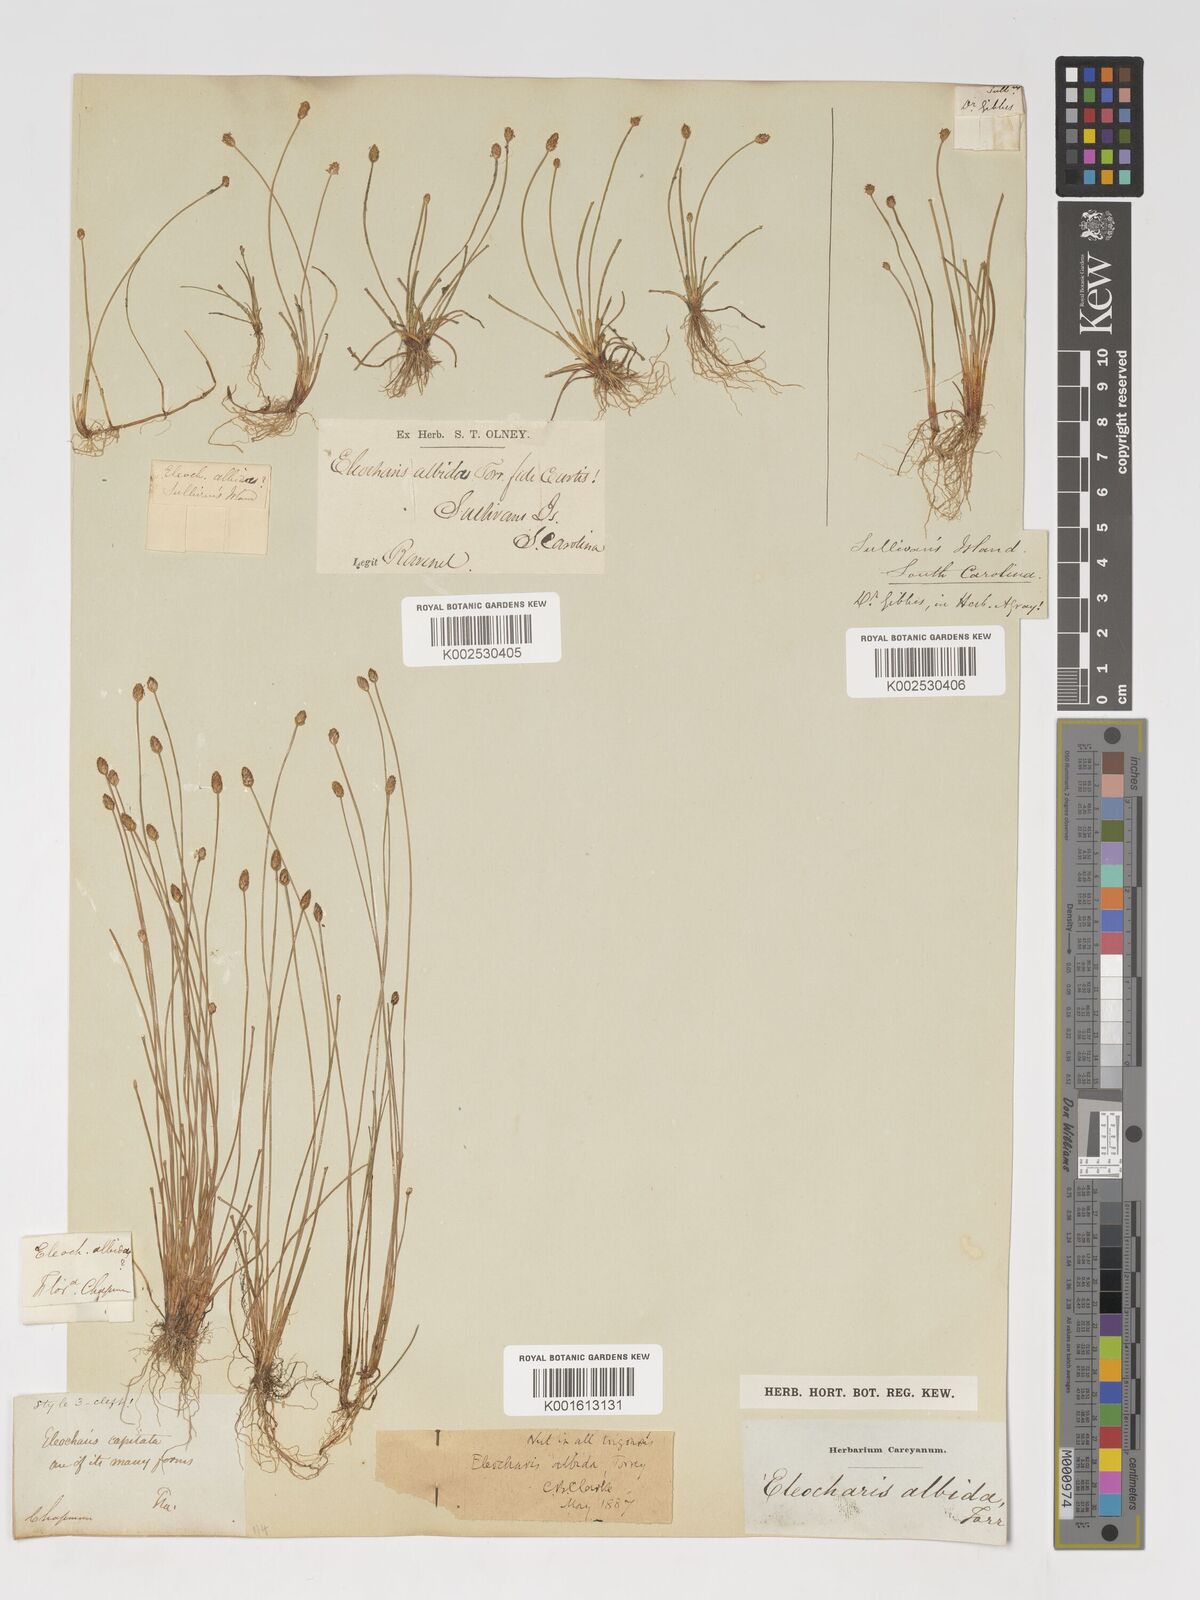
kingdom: Plantae
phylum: Tracheophyta
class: Liliopsida
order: Poales
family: Cyperaceae
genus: Eleocharis
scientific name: Eleocharis albida
